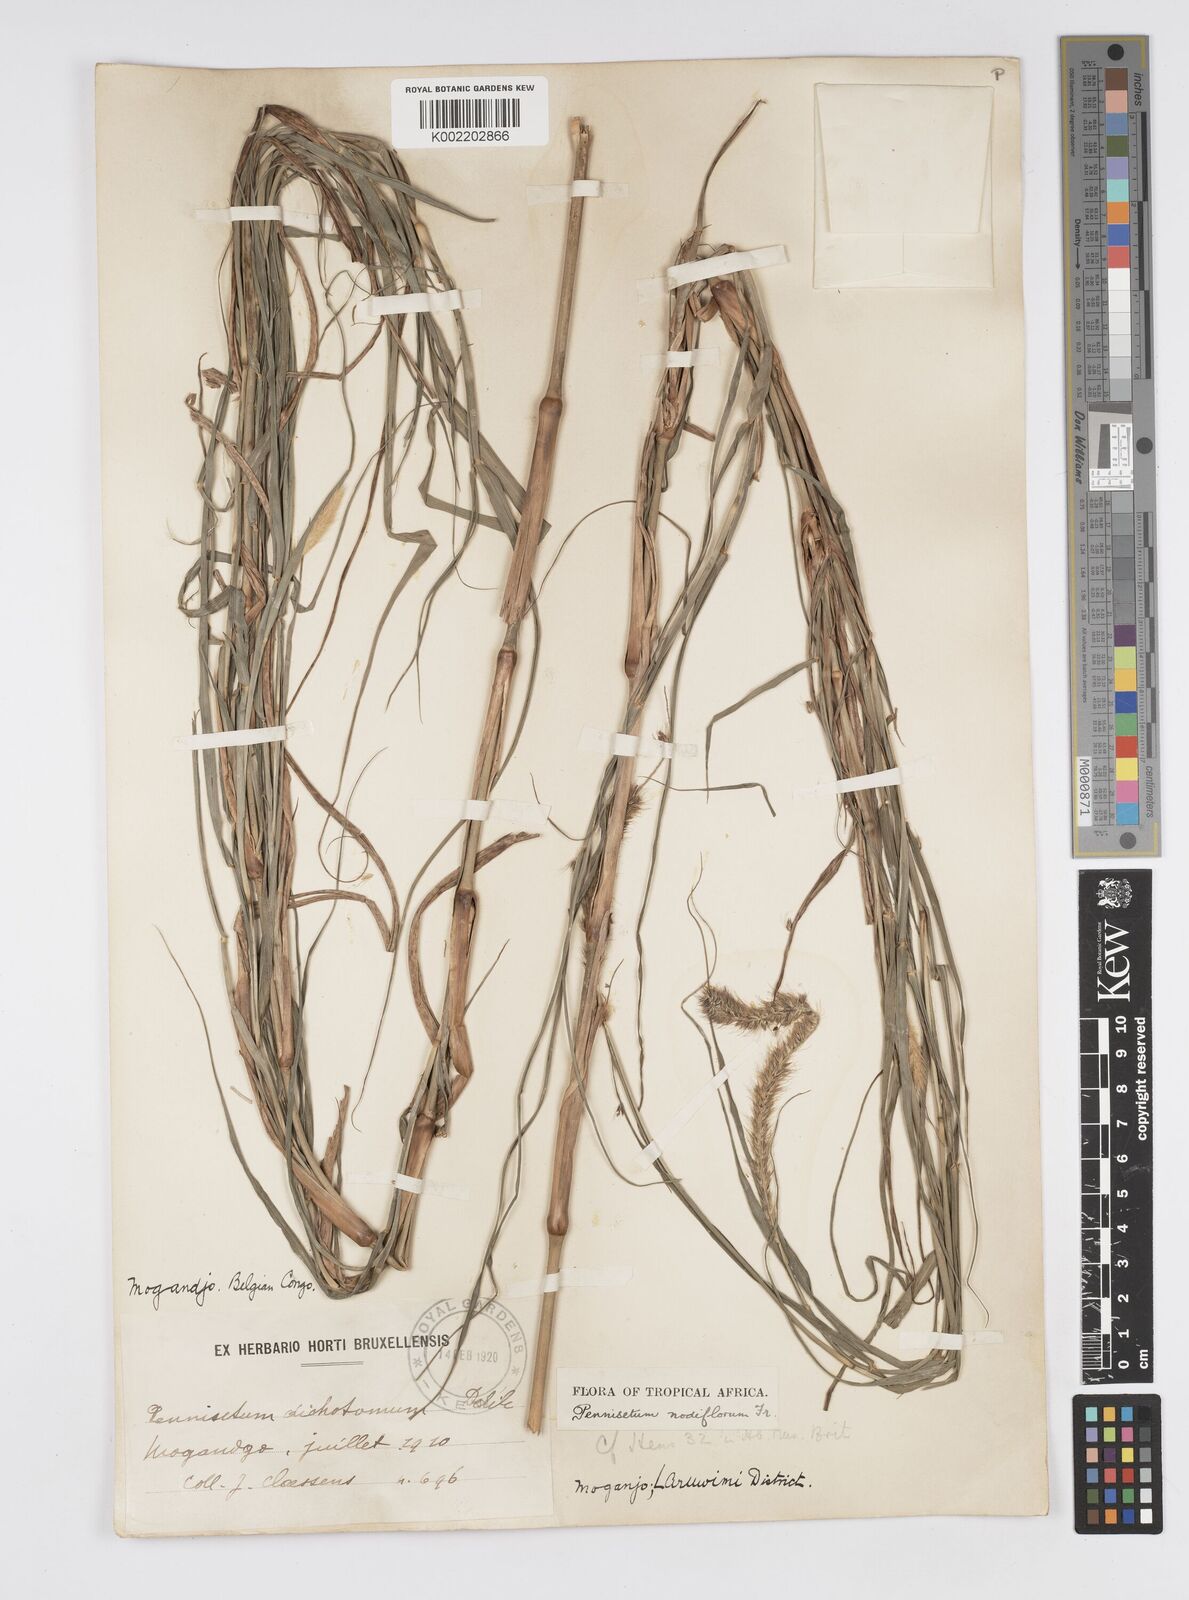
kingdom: Plantae
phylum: Tracheophyta
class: Liliopsida
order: Poales
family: Poaceae
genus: Cenchrus
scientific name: Cenchrus nodiflorus
